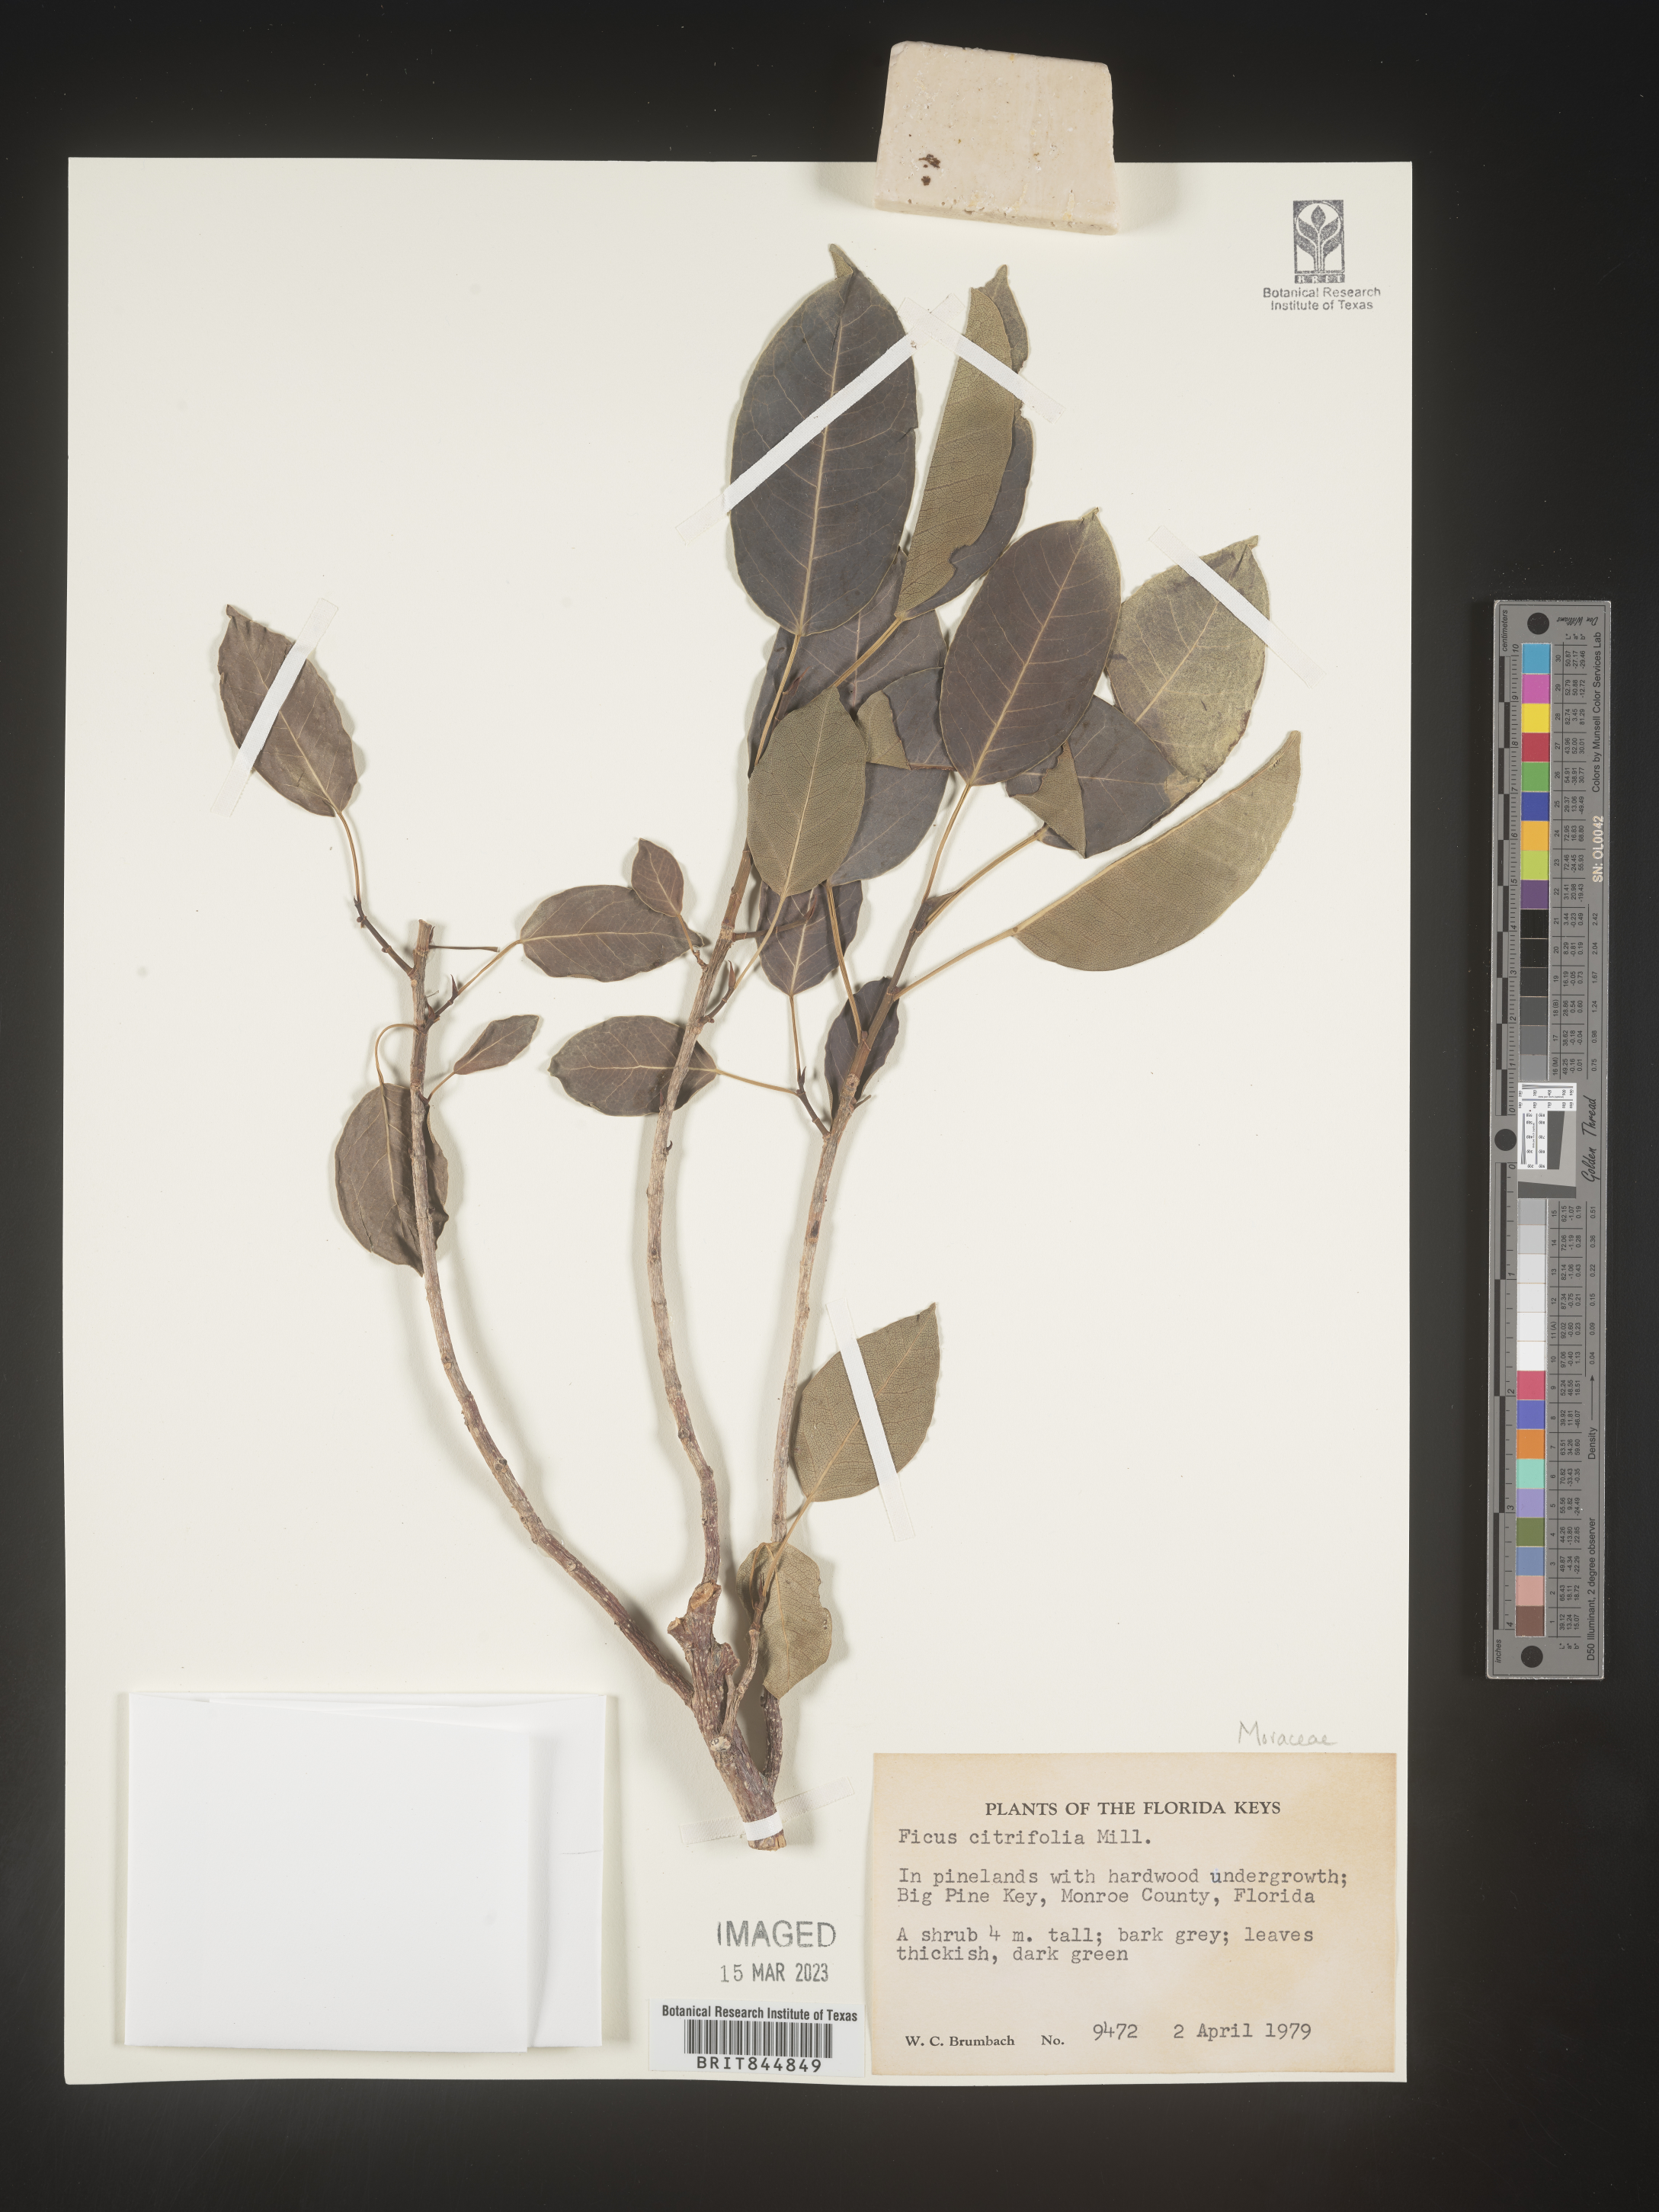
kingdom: Plantae
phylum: Tracheophyta
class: Magnoliopsida
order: Rosales
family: Moraceae
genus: Ficus
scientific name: Ficus
